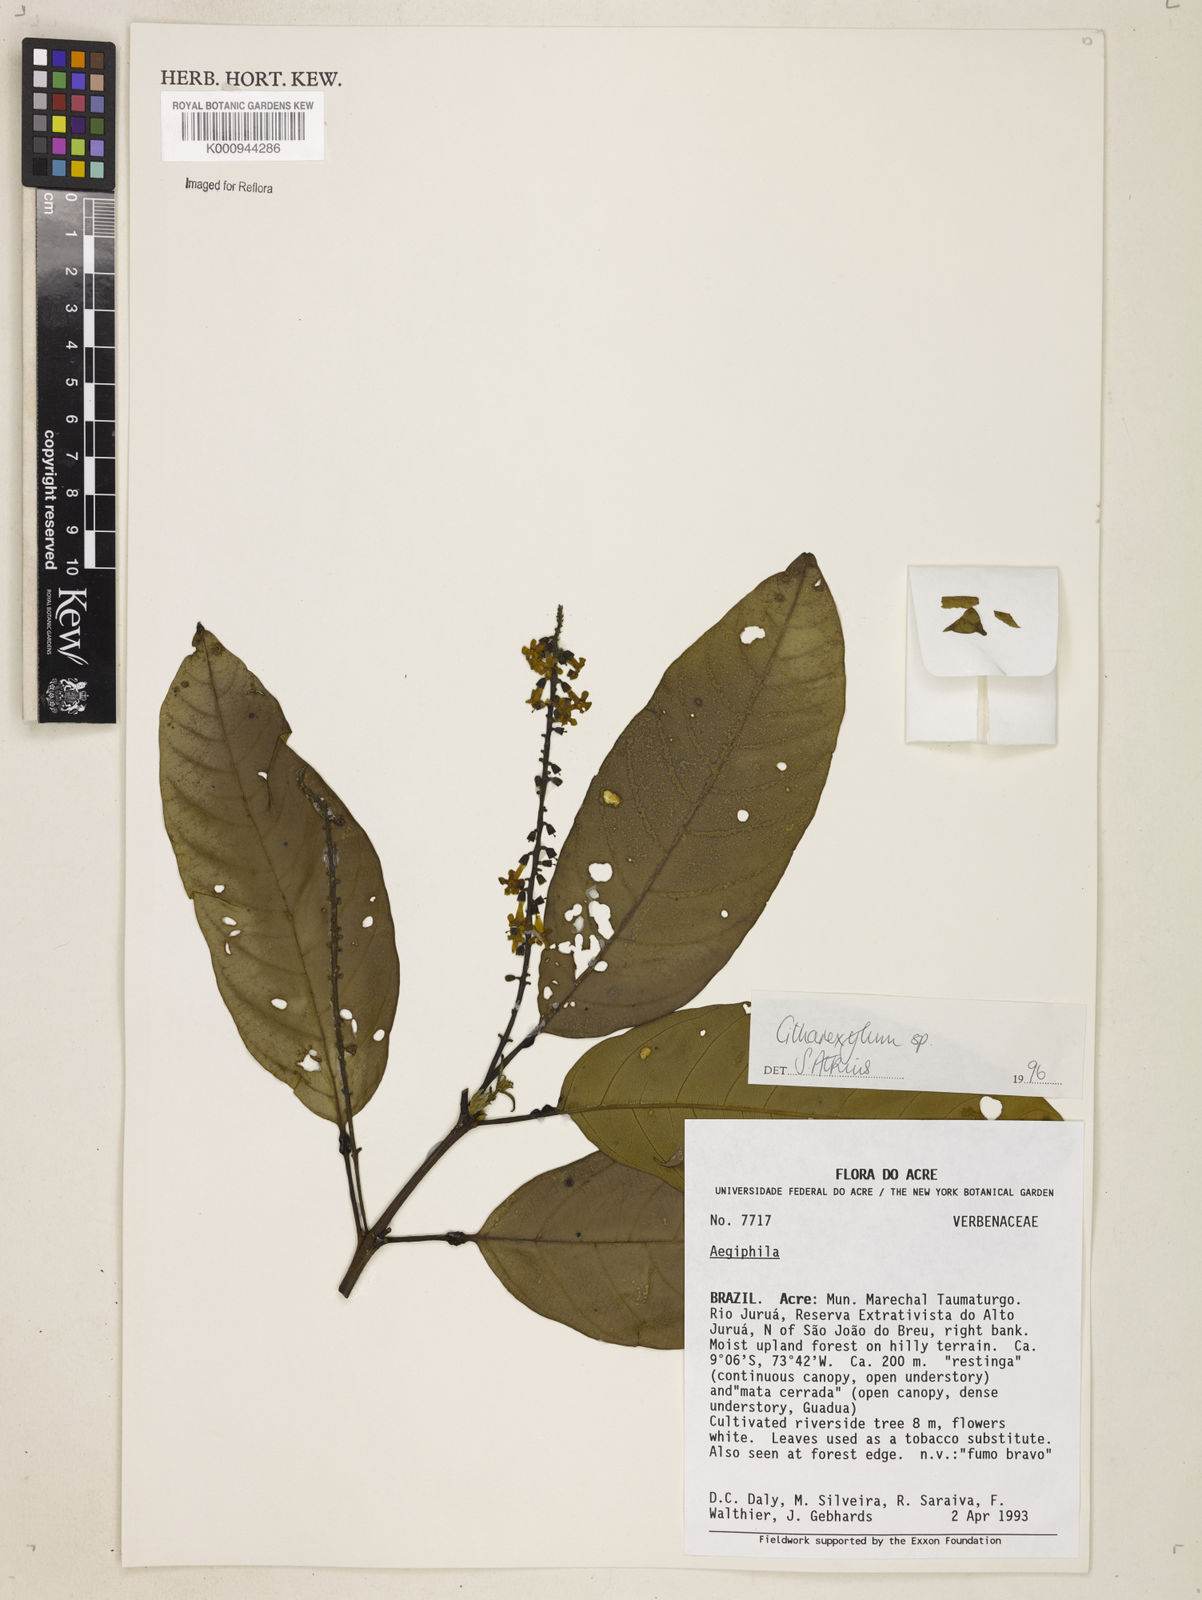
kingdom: Plantae
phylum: Tracheophyta
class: Magnoliopsida
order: Lamiales
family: Verbenaceae
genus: Citharexylum
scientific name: Citharexylum
